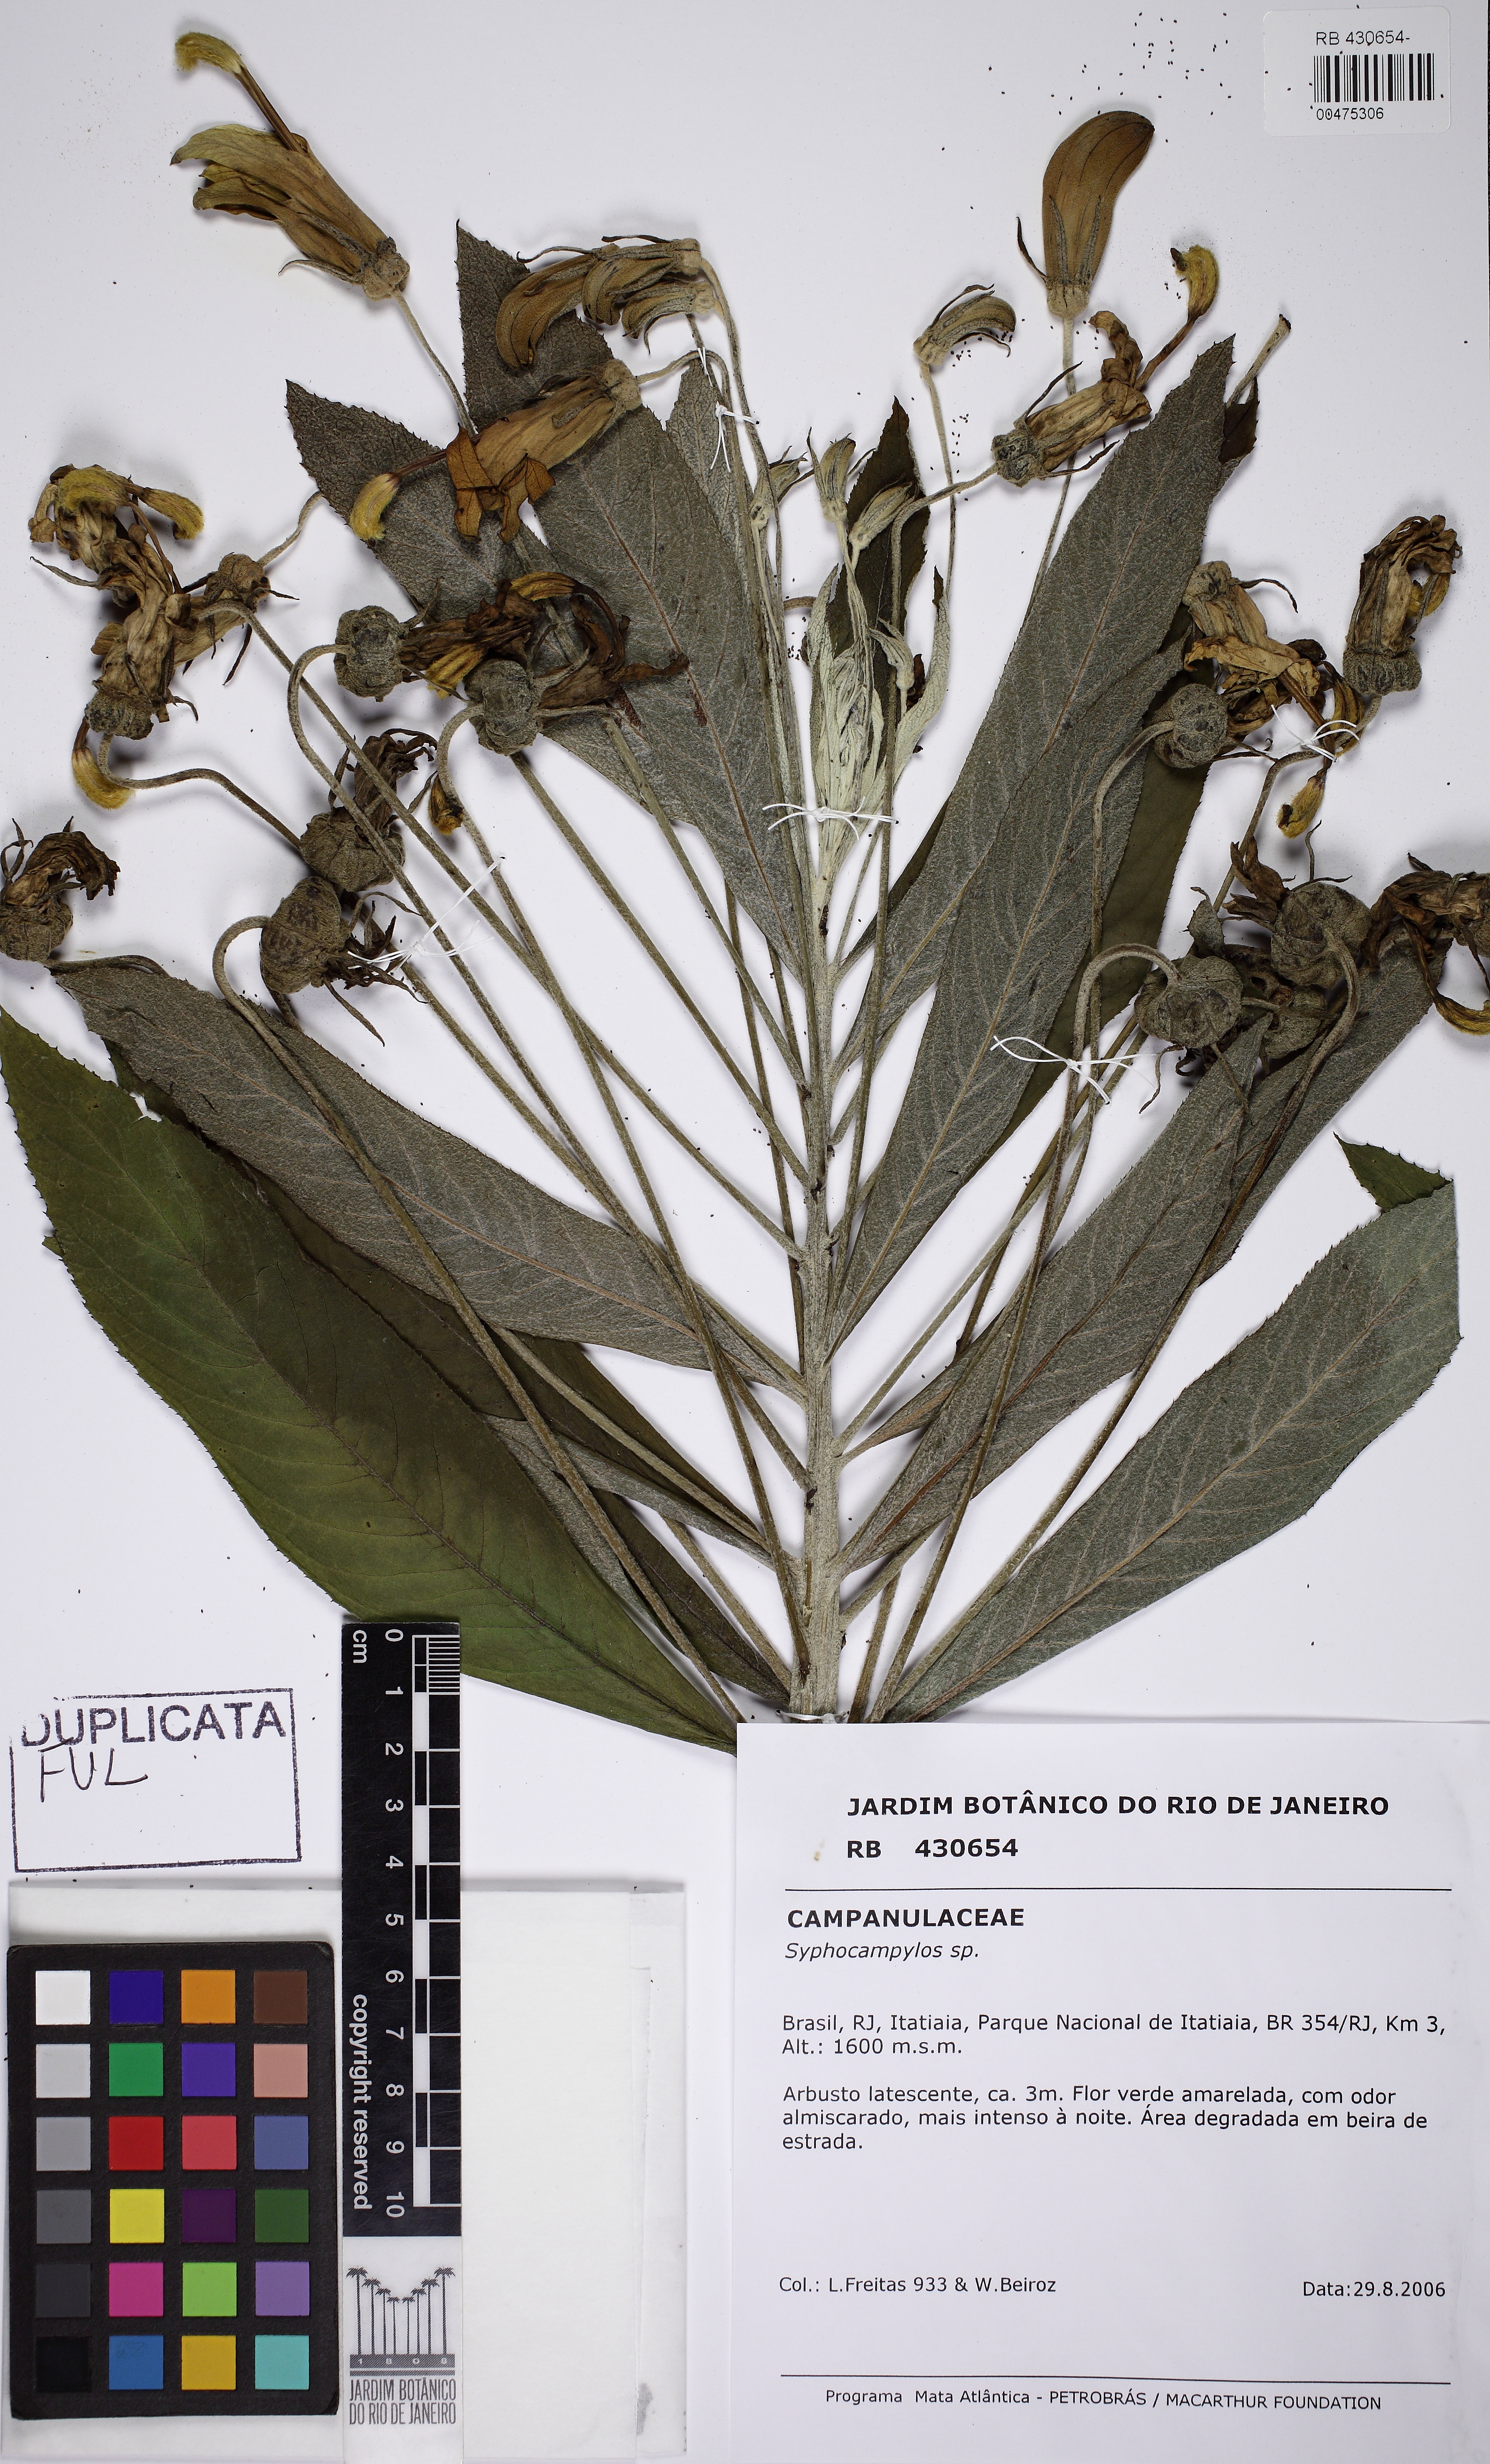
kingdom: Plantae
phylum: Tracheophyta
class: Magnoliopsida
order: Asterales
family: Campanulaceae
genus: Siphocampylus
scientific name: Siphocampylus umbellatus
